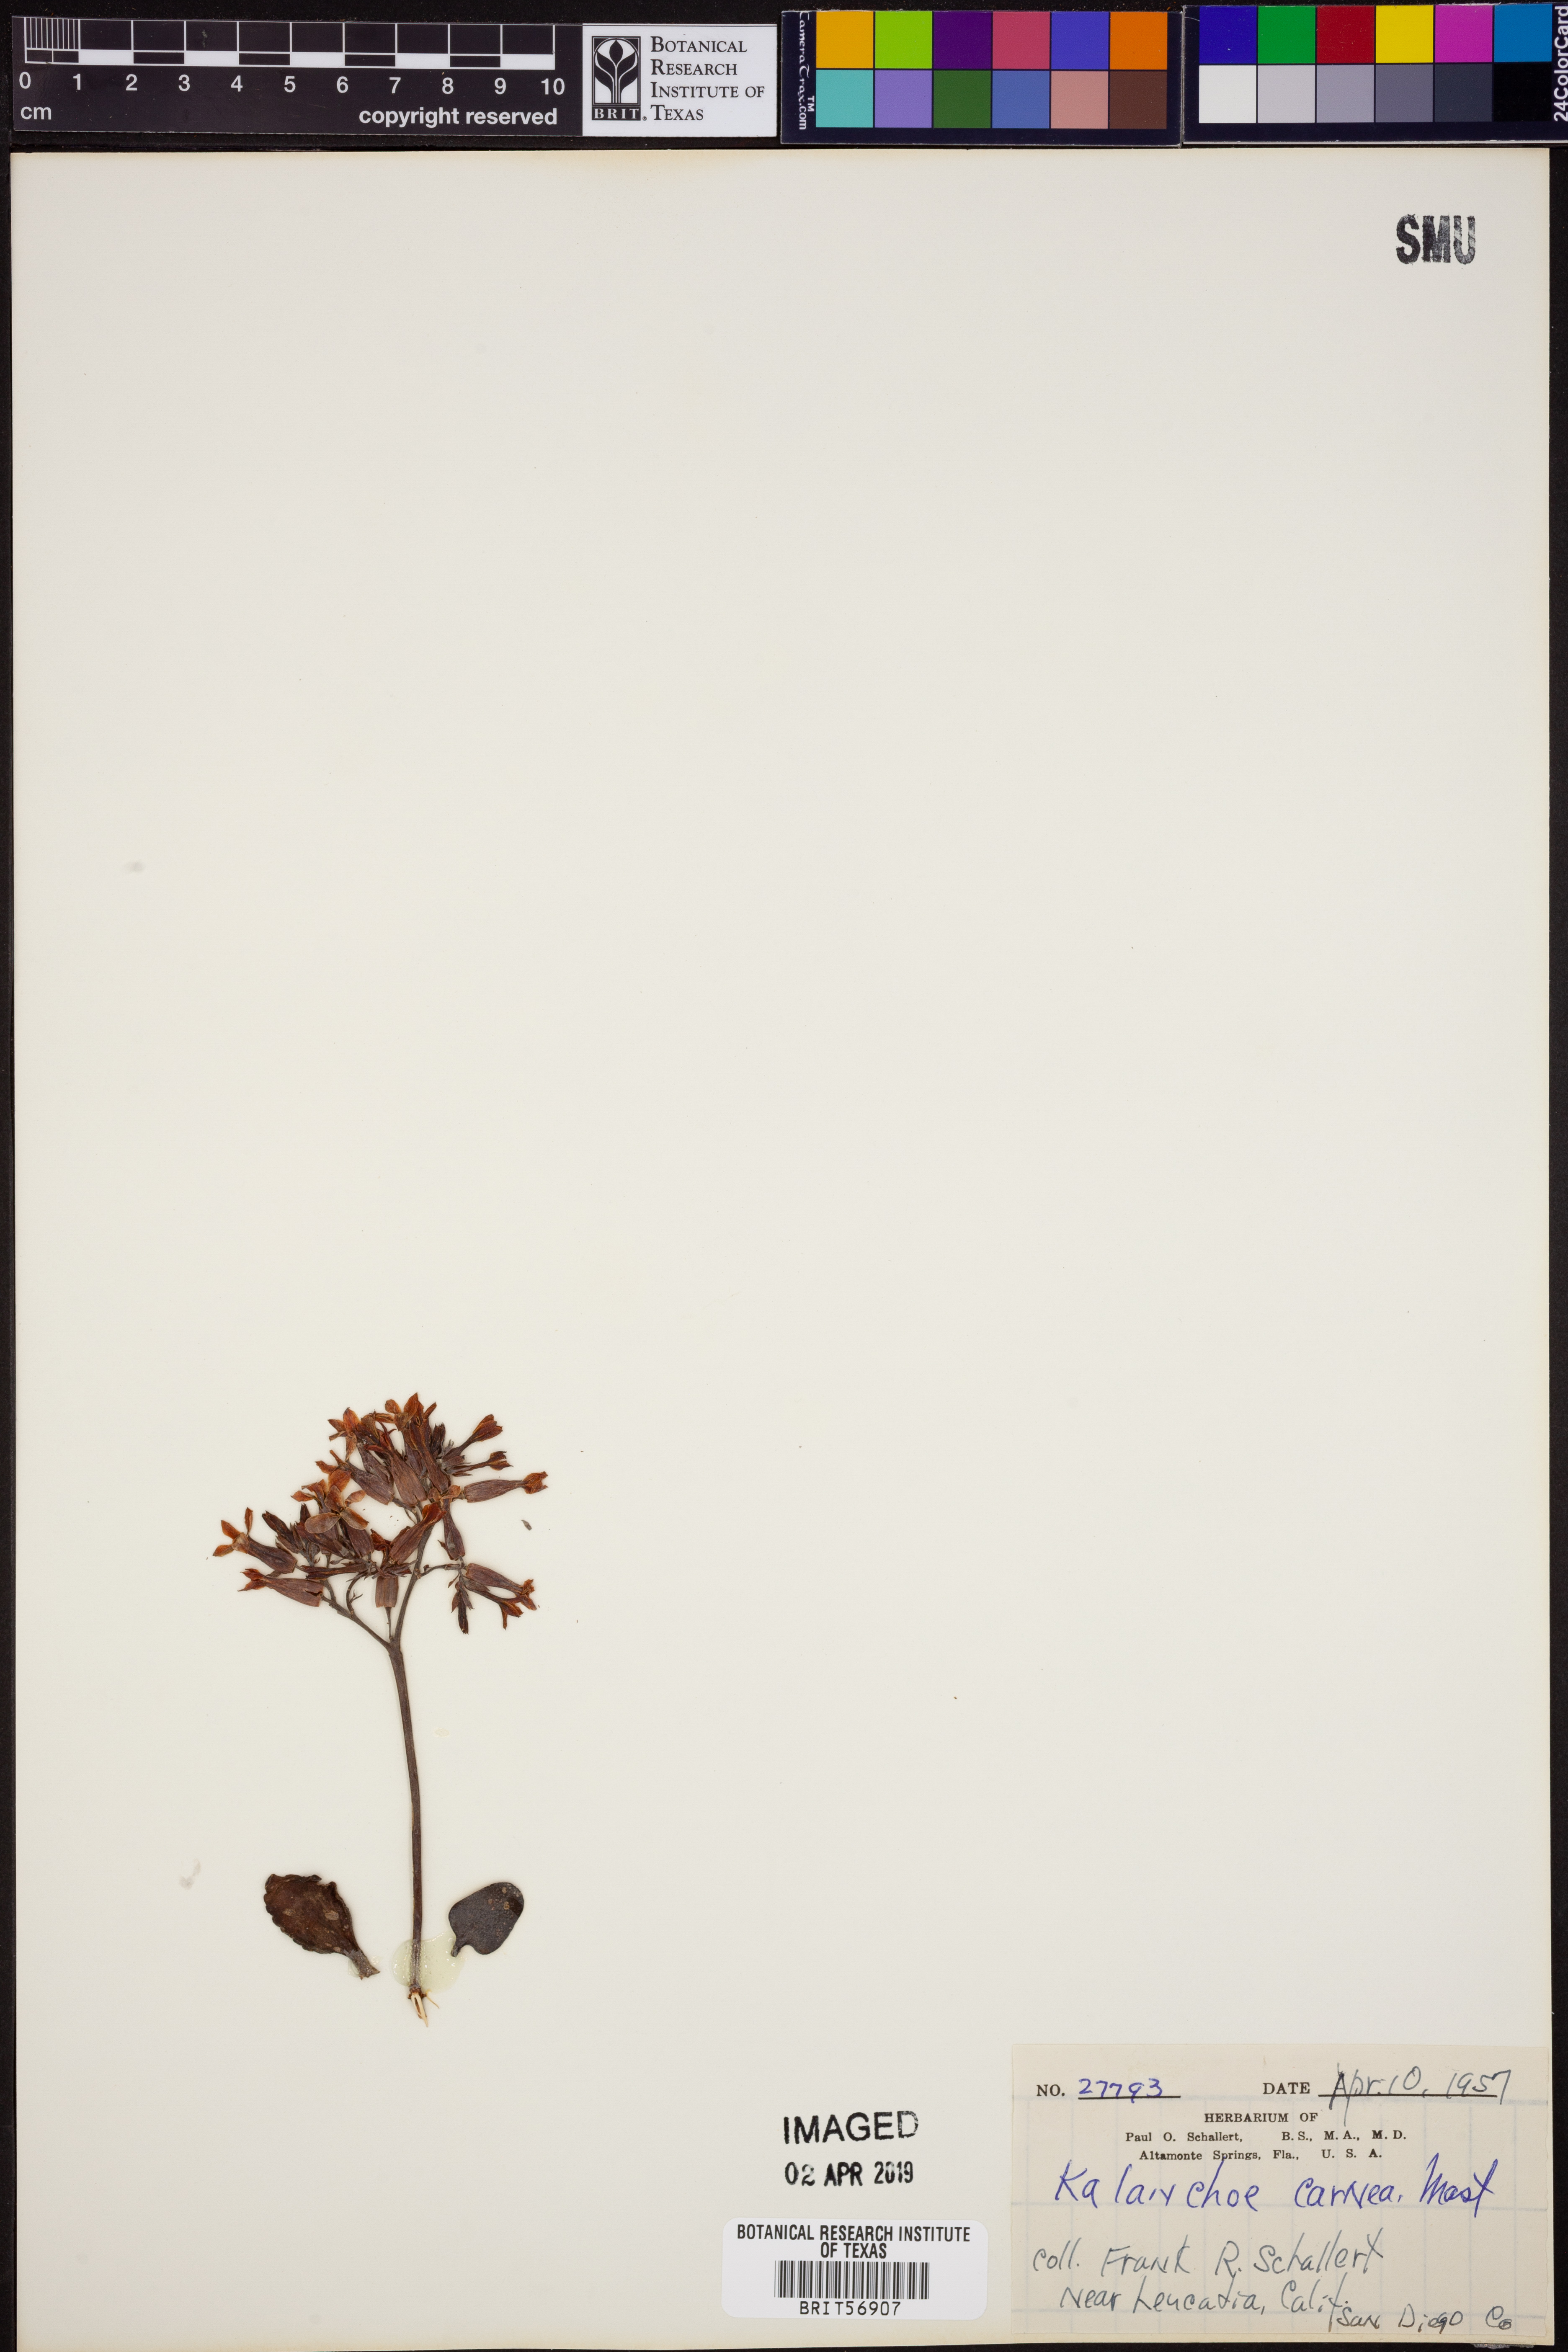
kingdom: Plantae
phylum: Tracheophyta
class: Magnoliopsida
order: Saxifragales
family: Crassulaceae
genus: Kalanchoe
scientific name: Kalanchoe laciniata
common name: Christmastree plant
